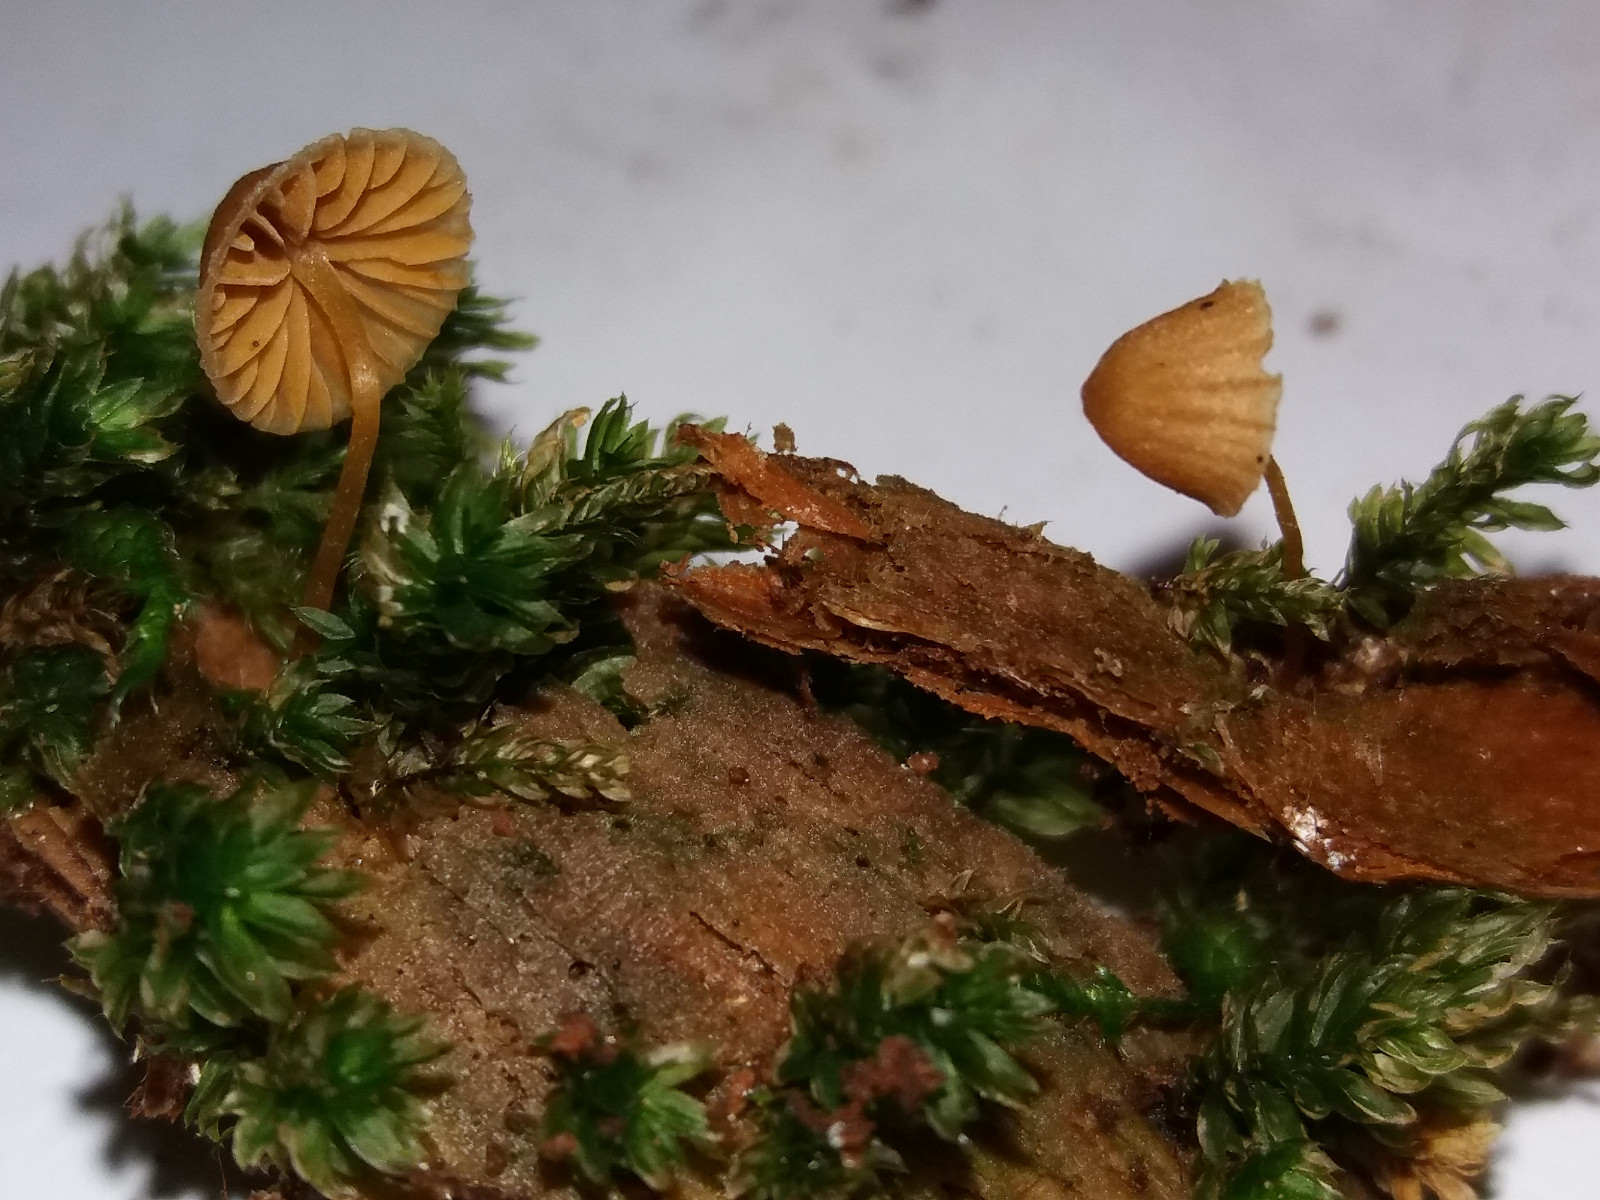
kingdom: Fungi
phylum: Basidiomycota
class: Agaricomycetes
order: Agaricales
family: Hymenogastraceae
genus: Galerina
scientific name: Galerina hypnorum
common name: mos-hjelmhat
